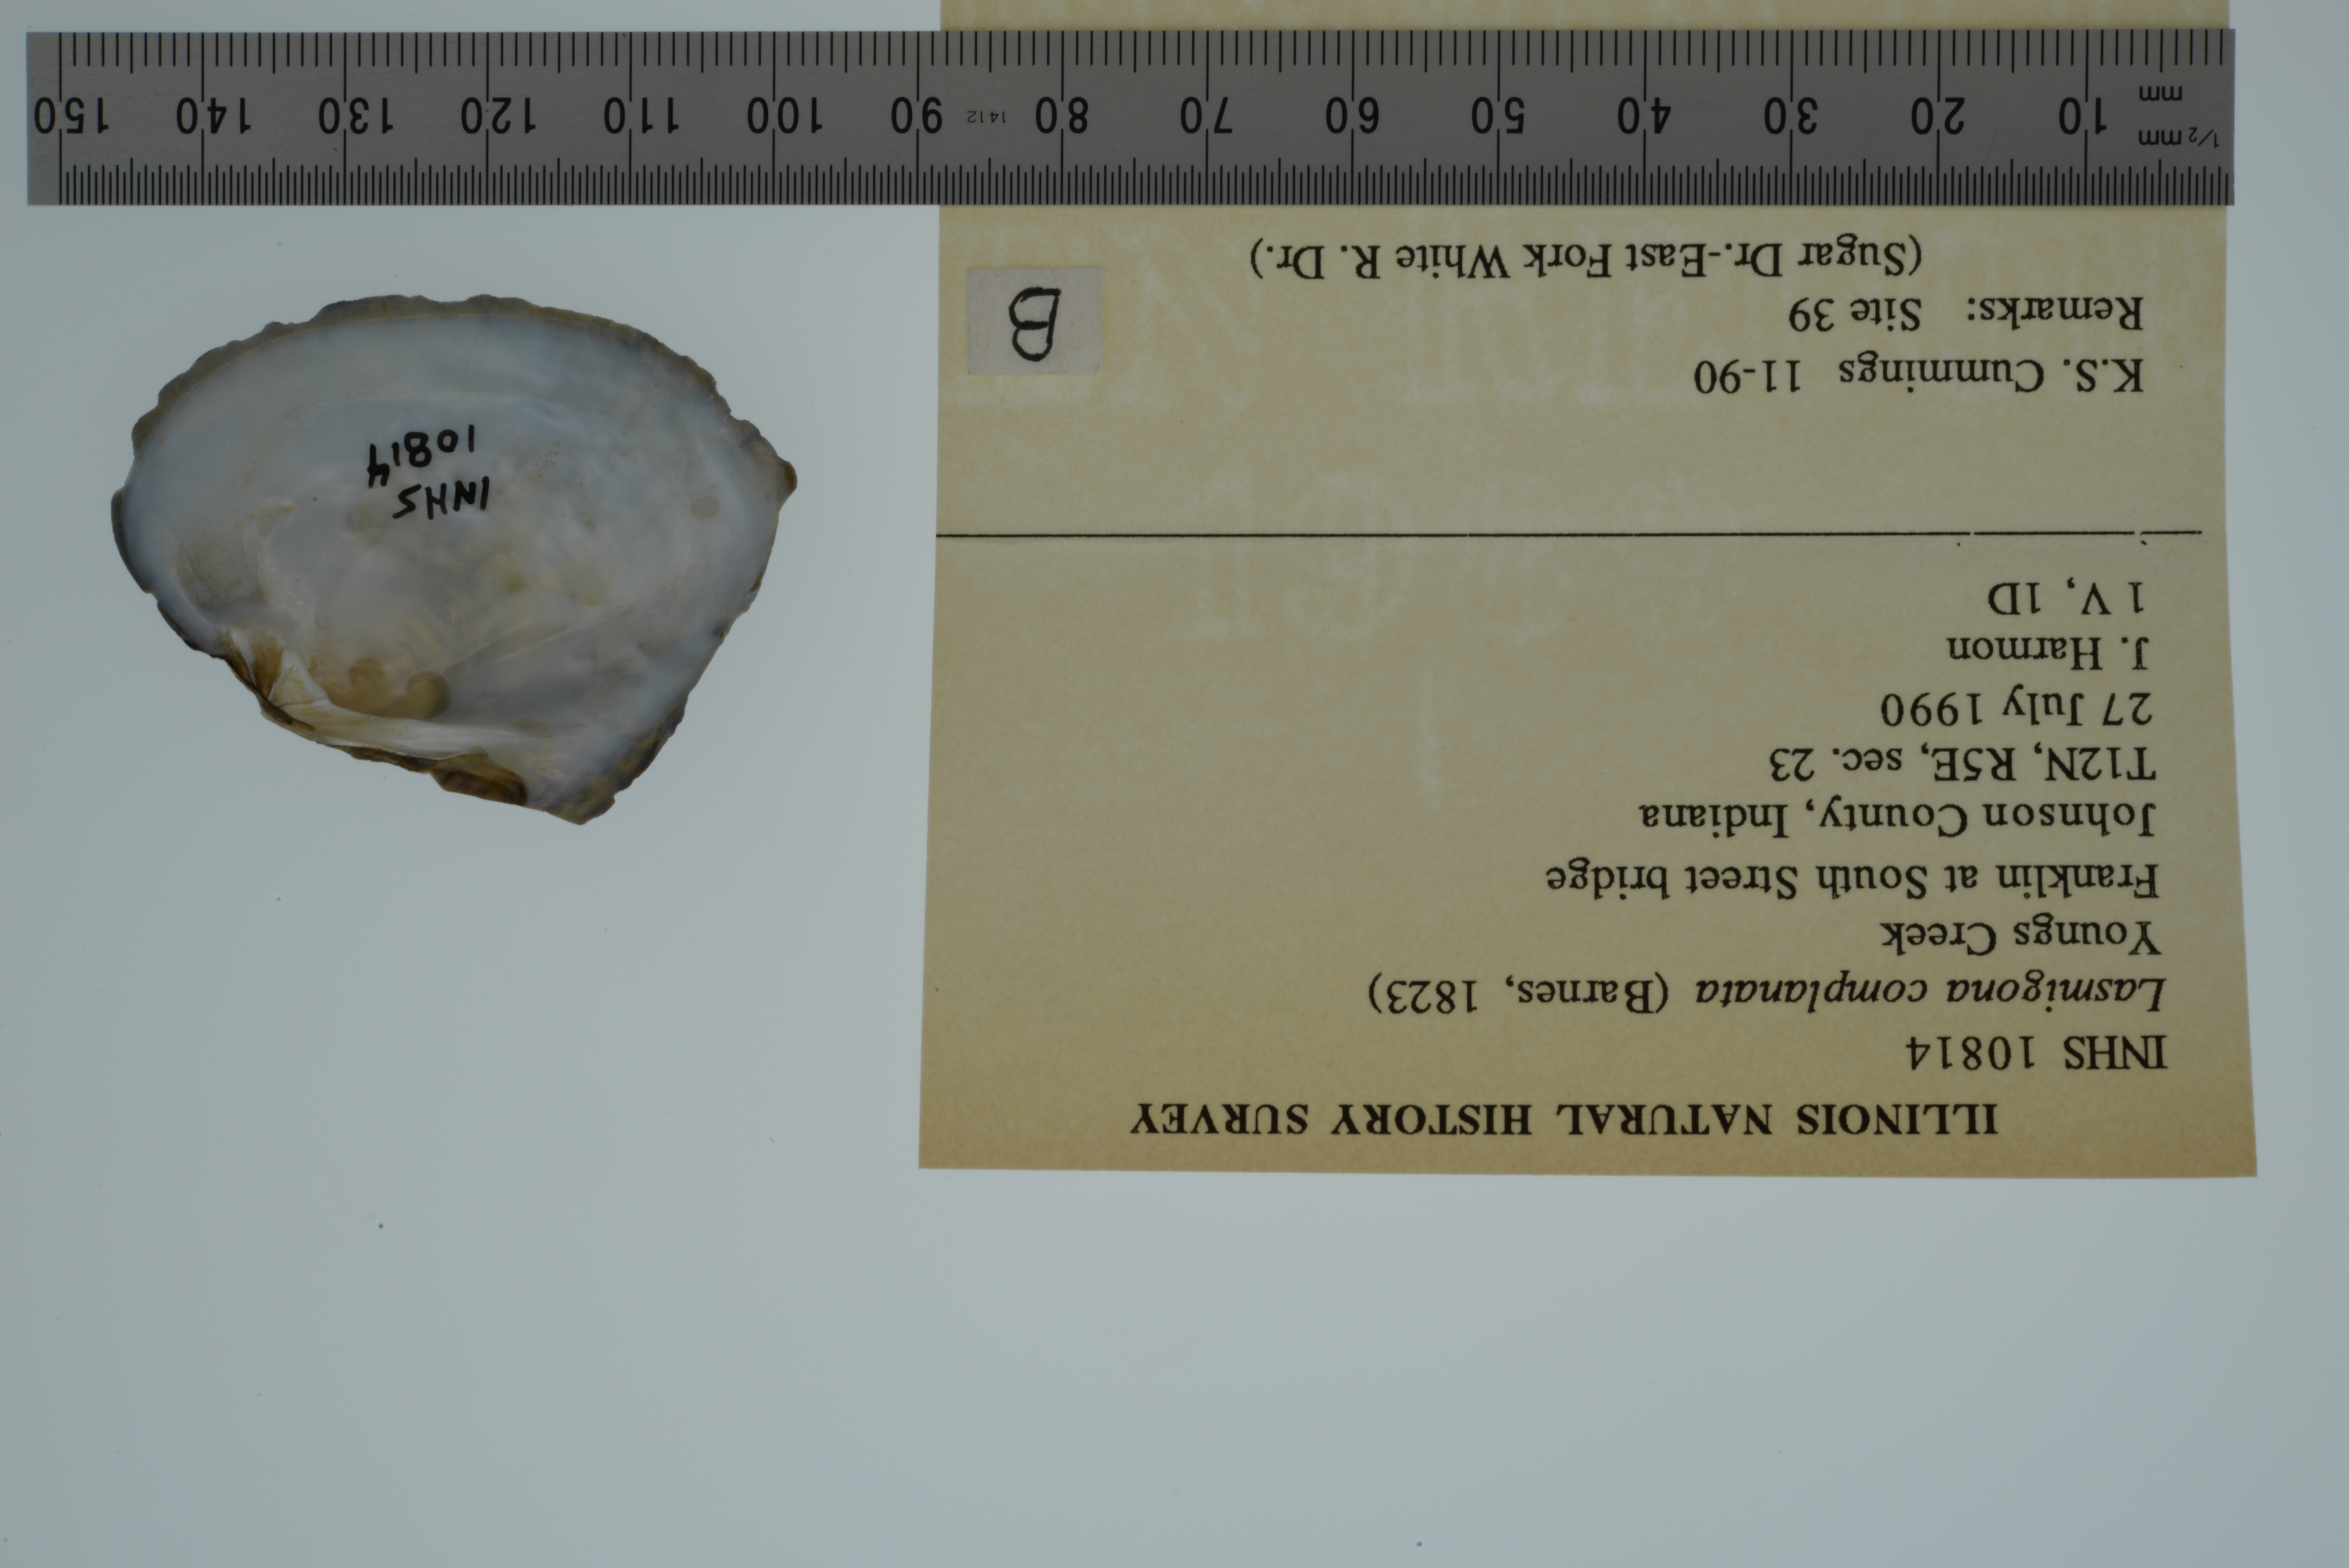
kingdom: Animalia
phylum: Mollusca
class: Bivalvia
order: Unionida
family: Unionidae
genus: Lasmigona
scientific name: Lasmigona complanata
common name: White heelsplitter
